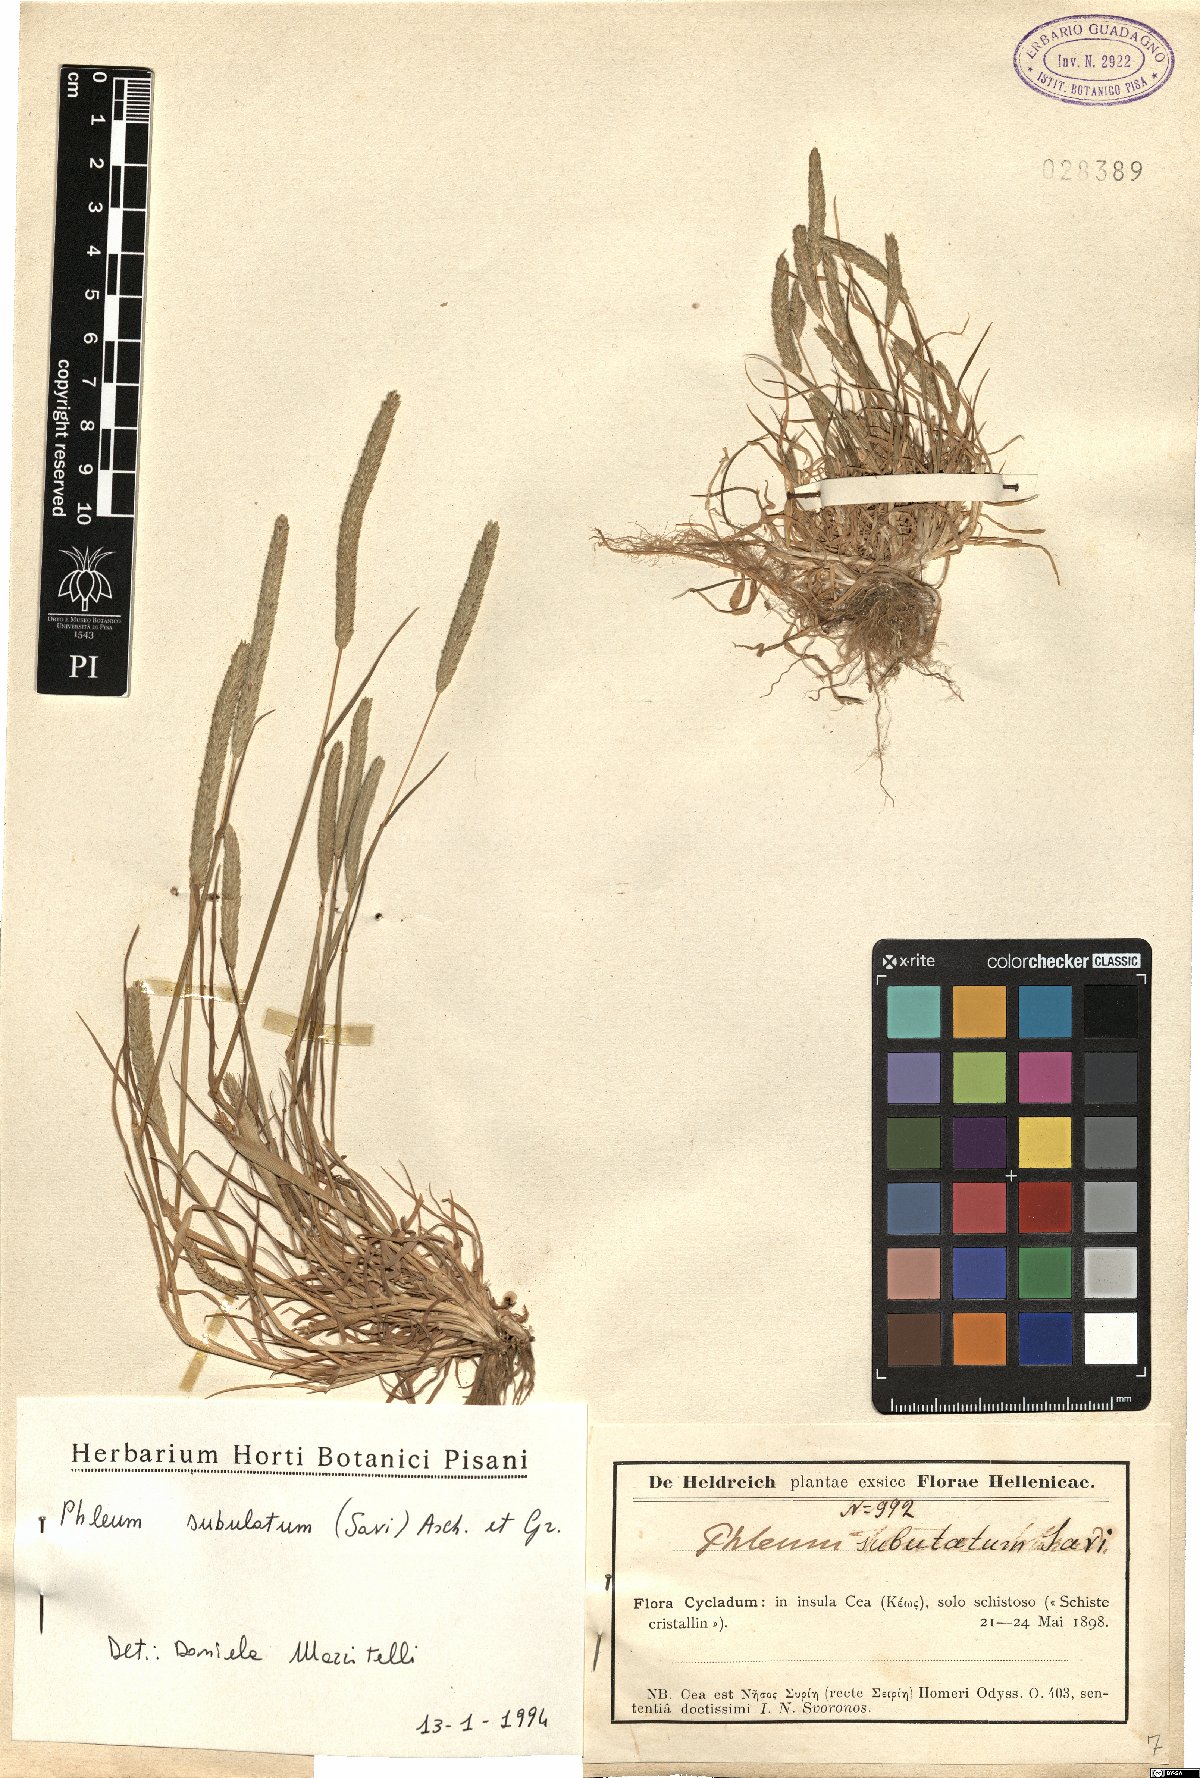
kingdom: Plantae
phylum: Tracheophyta
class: Liliopsida
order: Poales
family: Poaceae
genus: Phleum
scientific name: Phleum subulatum
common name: Italian timothy
